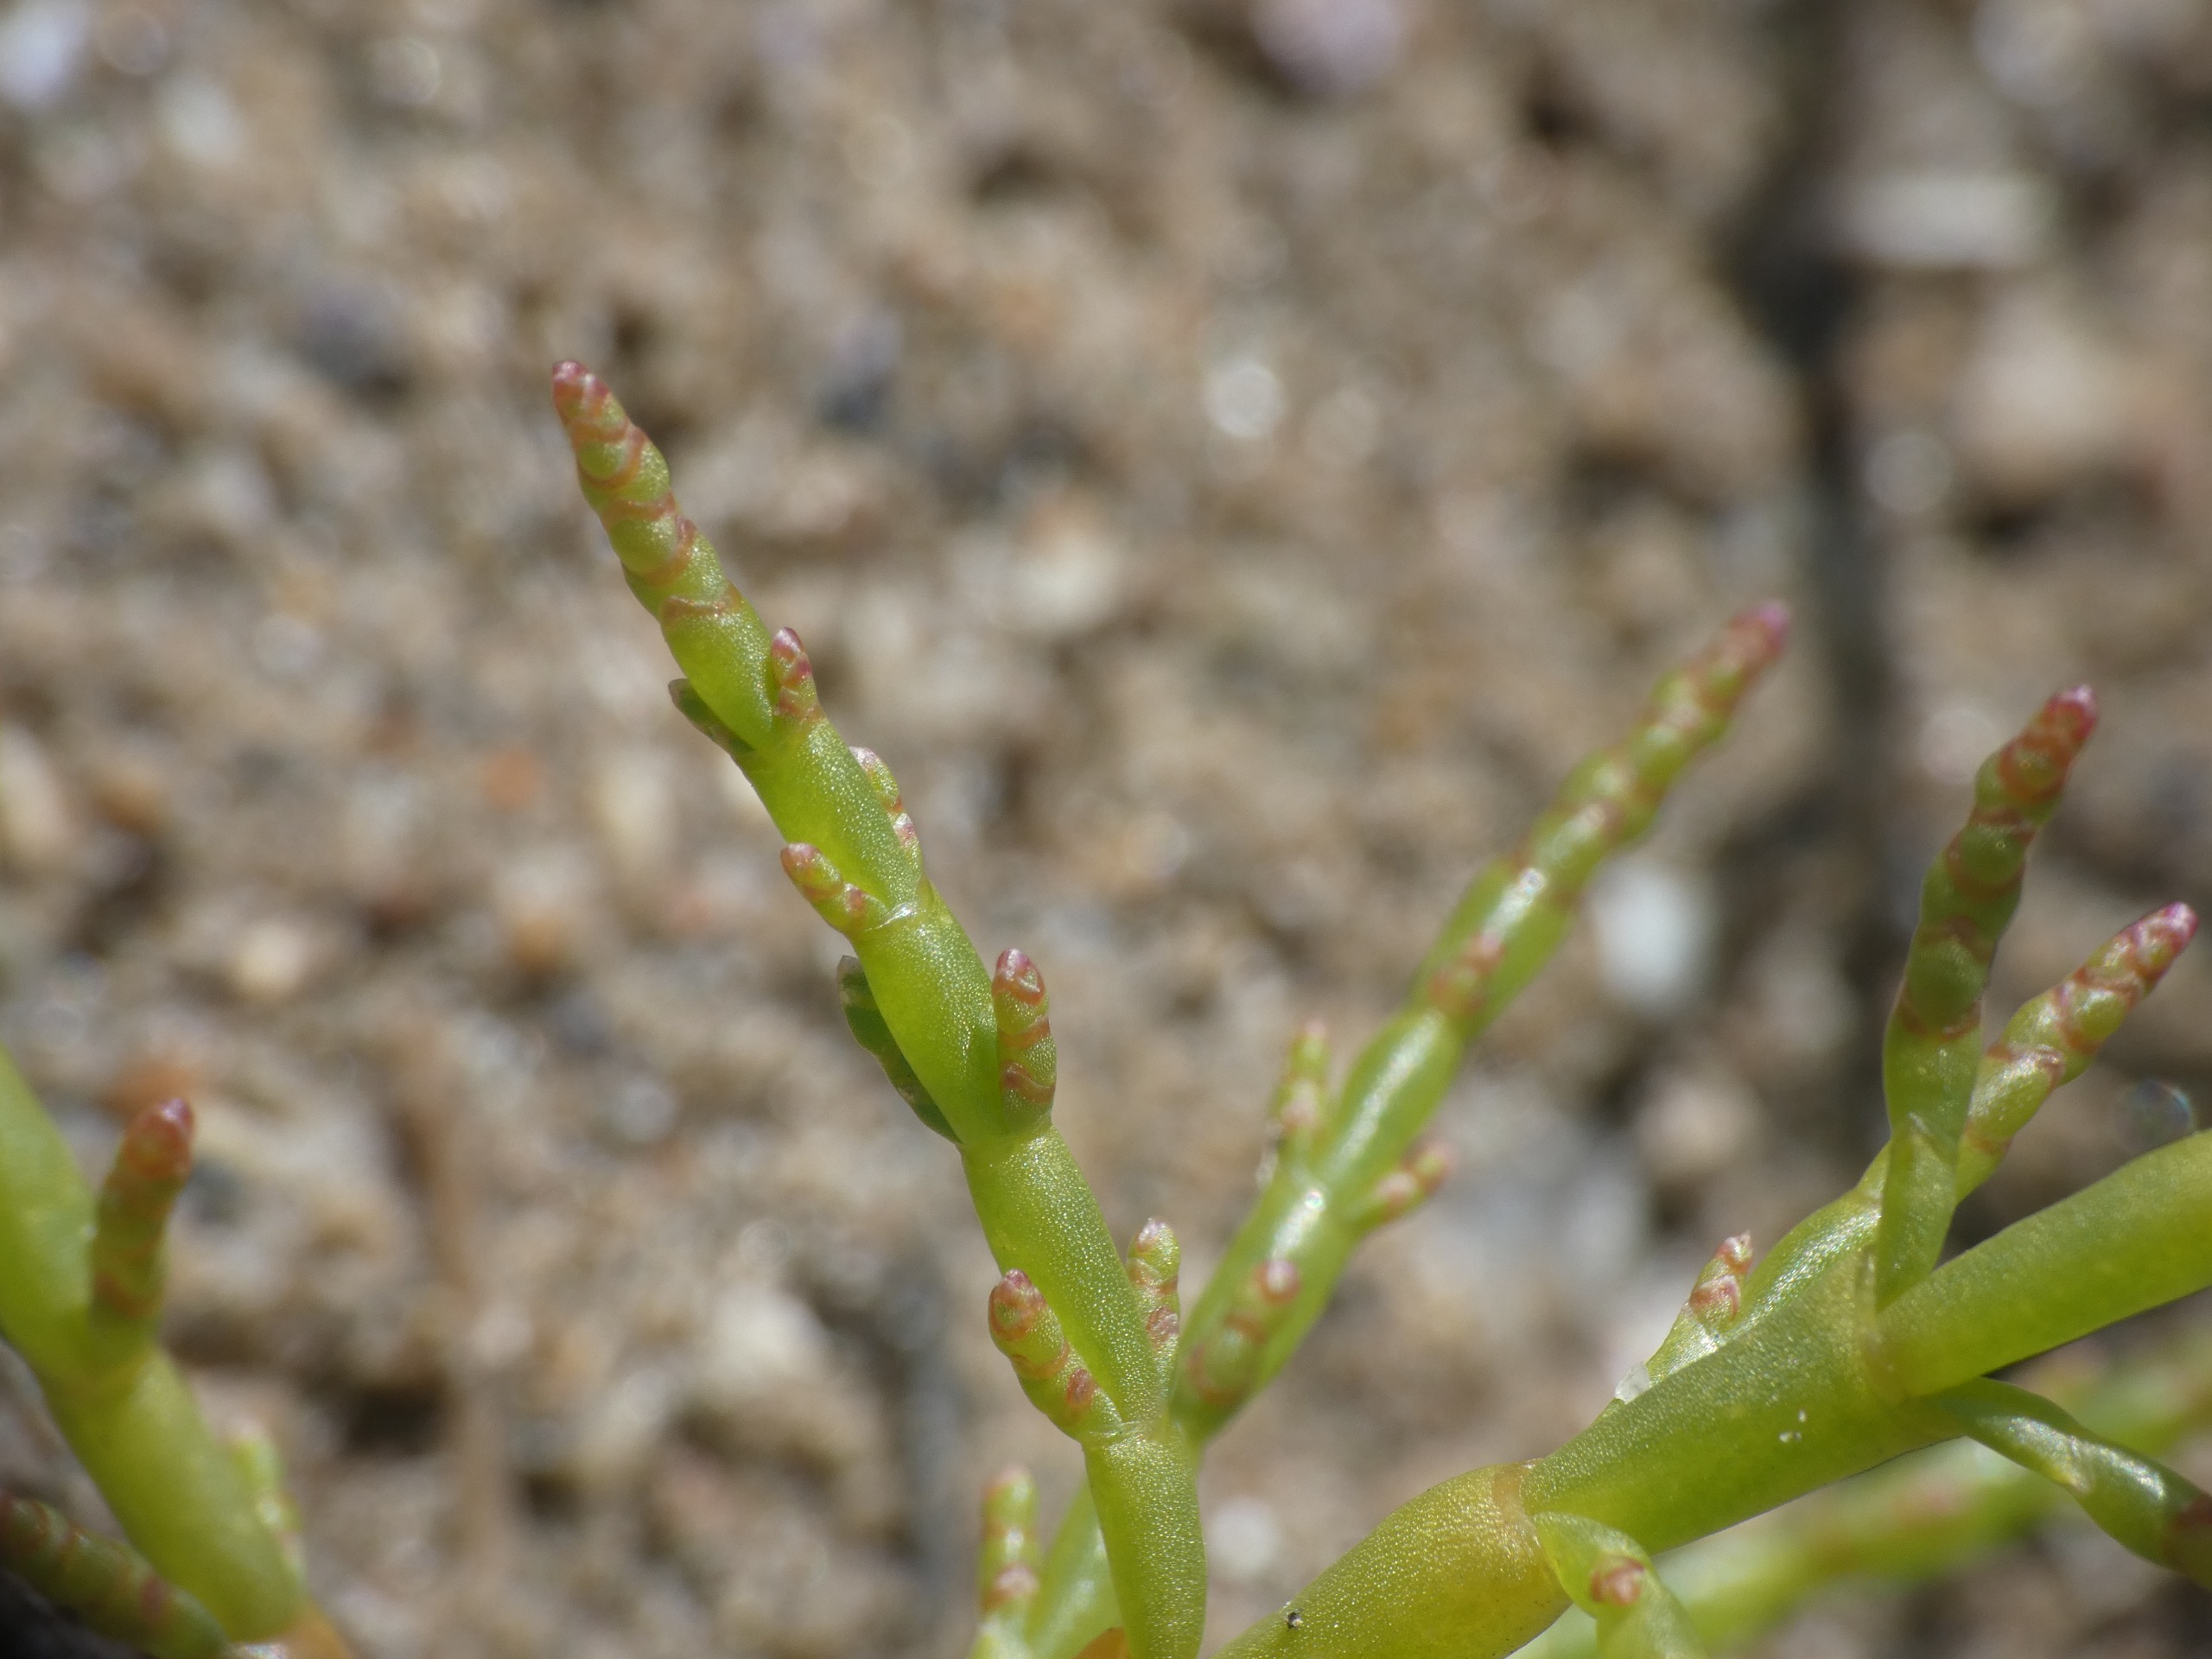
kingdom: Plantae
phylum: Tracheophyta
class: Magnoliopsida
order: Caryophyllales
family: Amaranthaceae
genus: Salicornia
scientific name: Salicornia europaea
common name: Almindelig salturt
